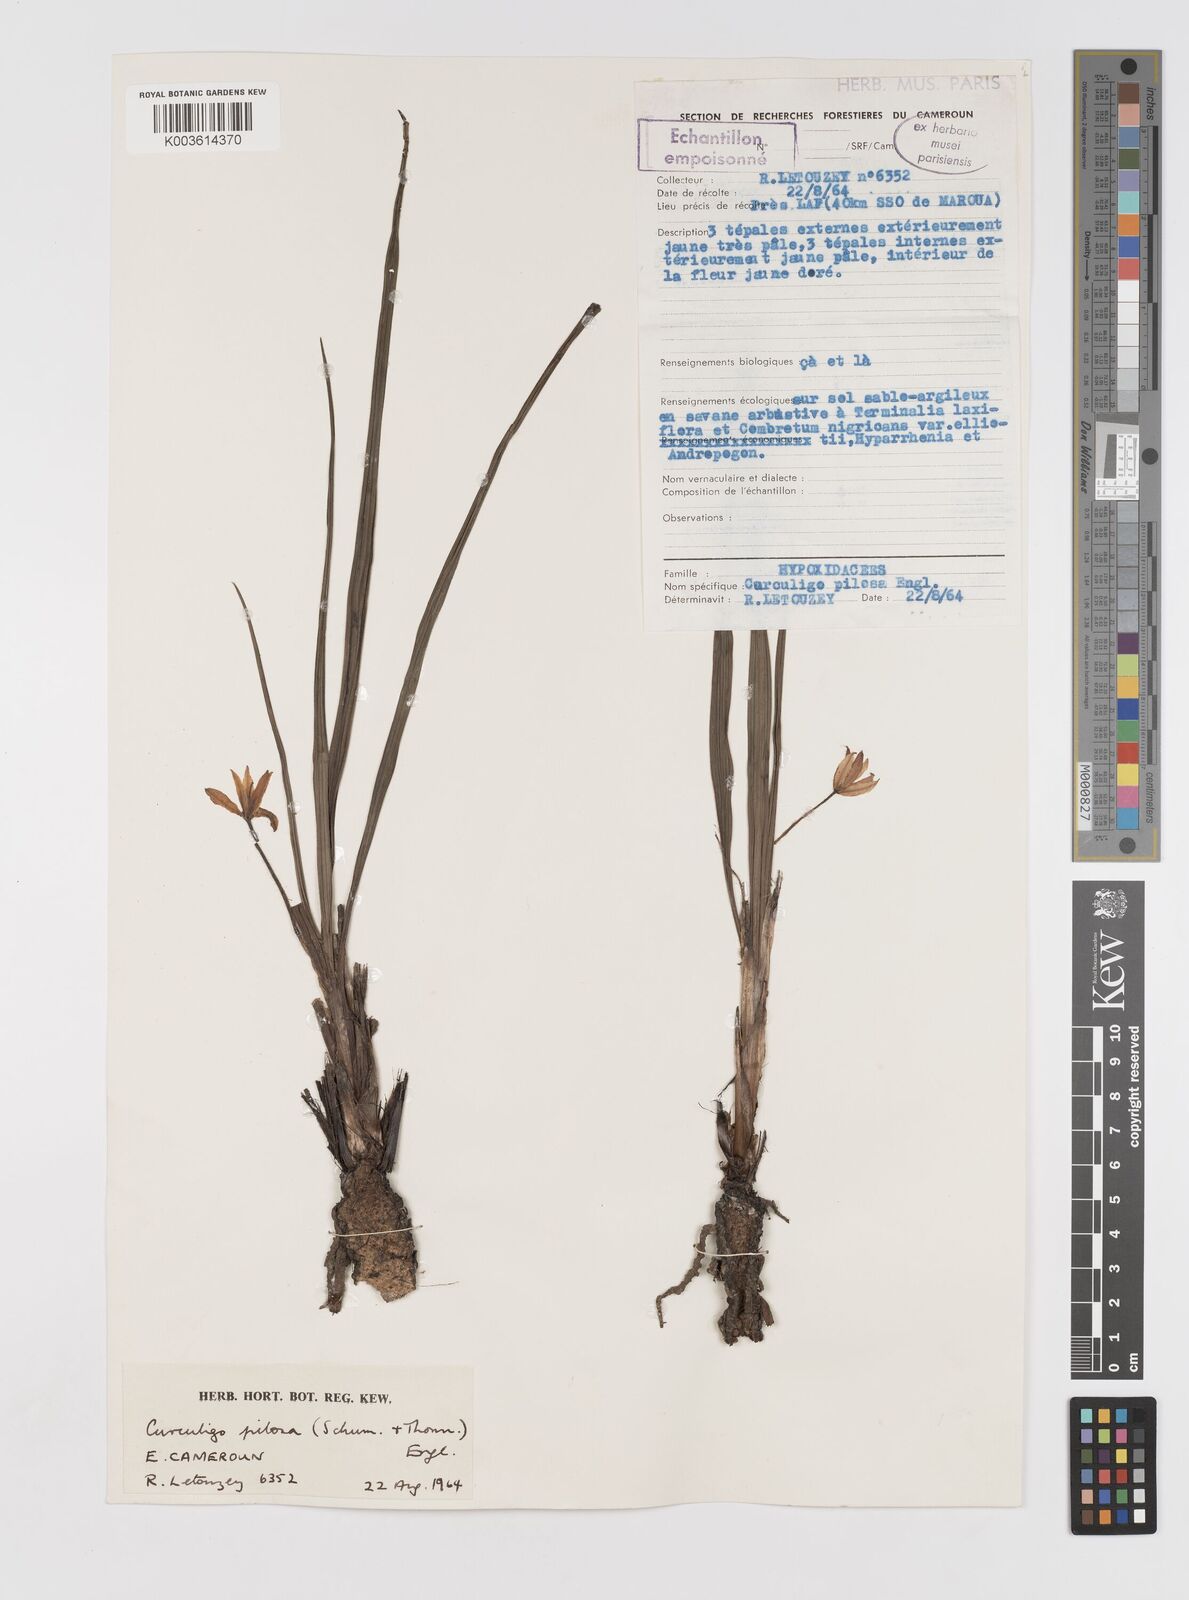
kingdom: Plantae
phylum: Tracheophyta
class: Liliopsida
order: Asparagales
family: Hypoxidaceae
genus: Curculigo
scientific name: Curculigo pilosa
